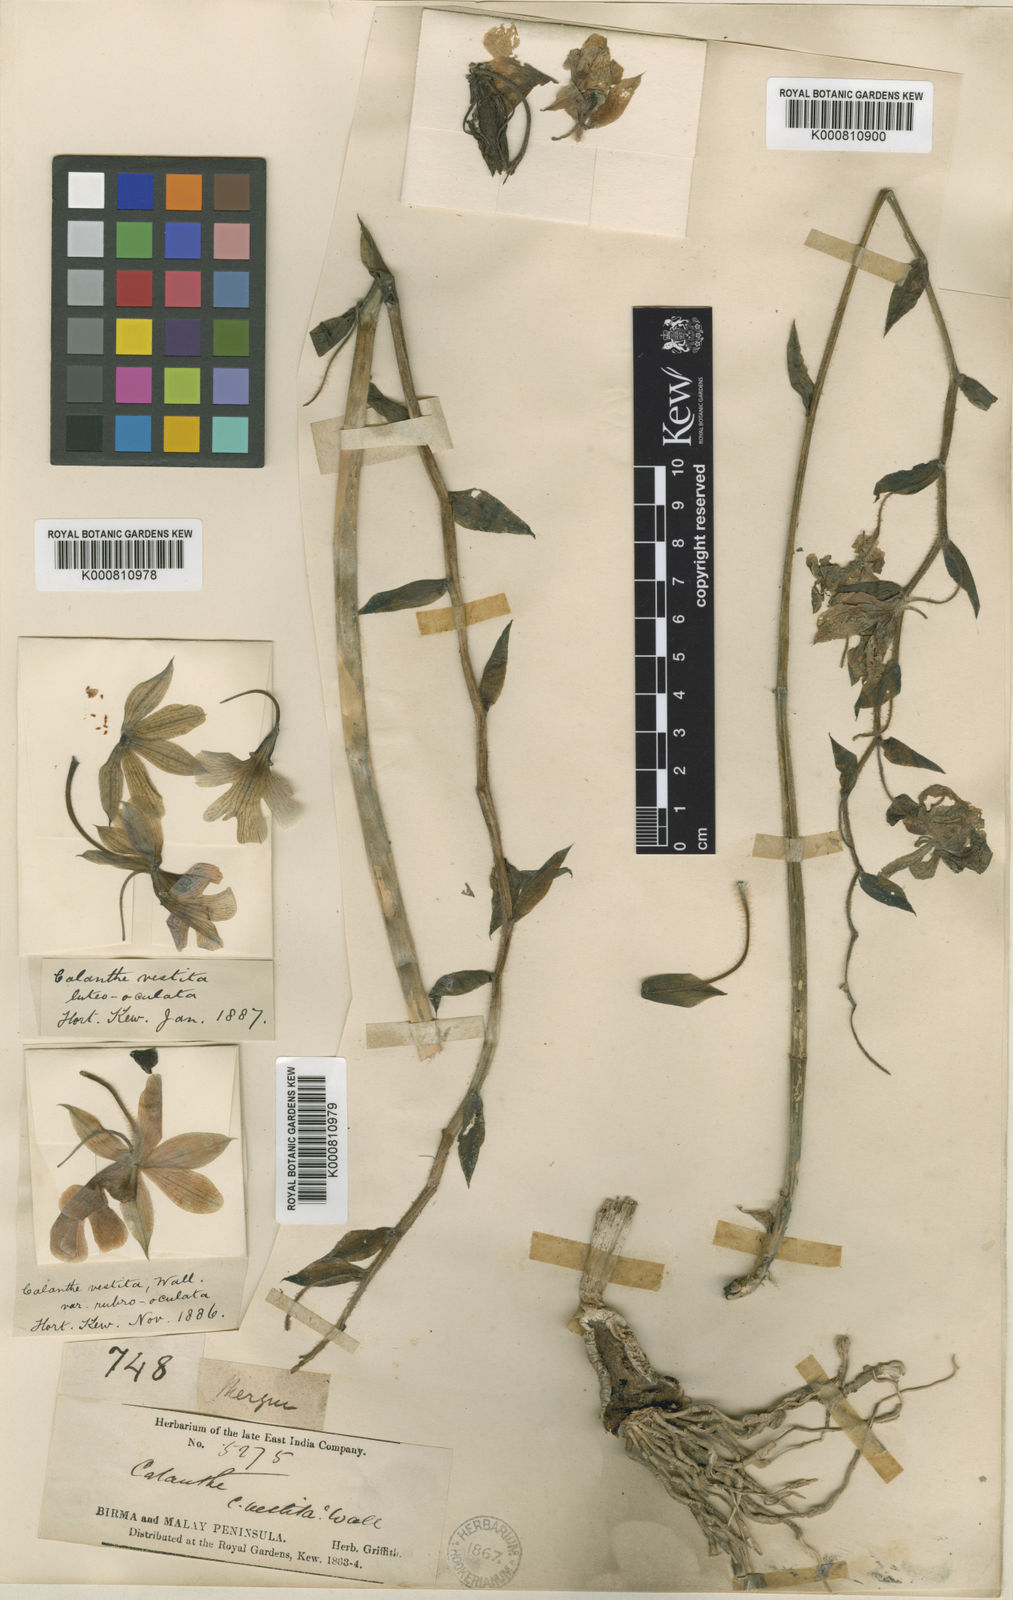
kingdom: Plantae
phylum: Tracheophyta
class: Liliopsida
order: Asparagales
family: Orchidaceae
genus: Calanthe
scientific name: Calanthe vestita
